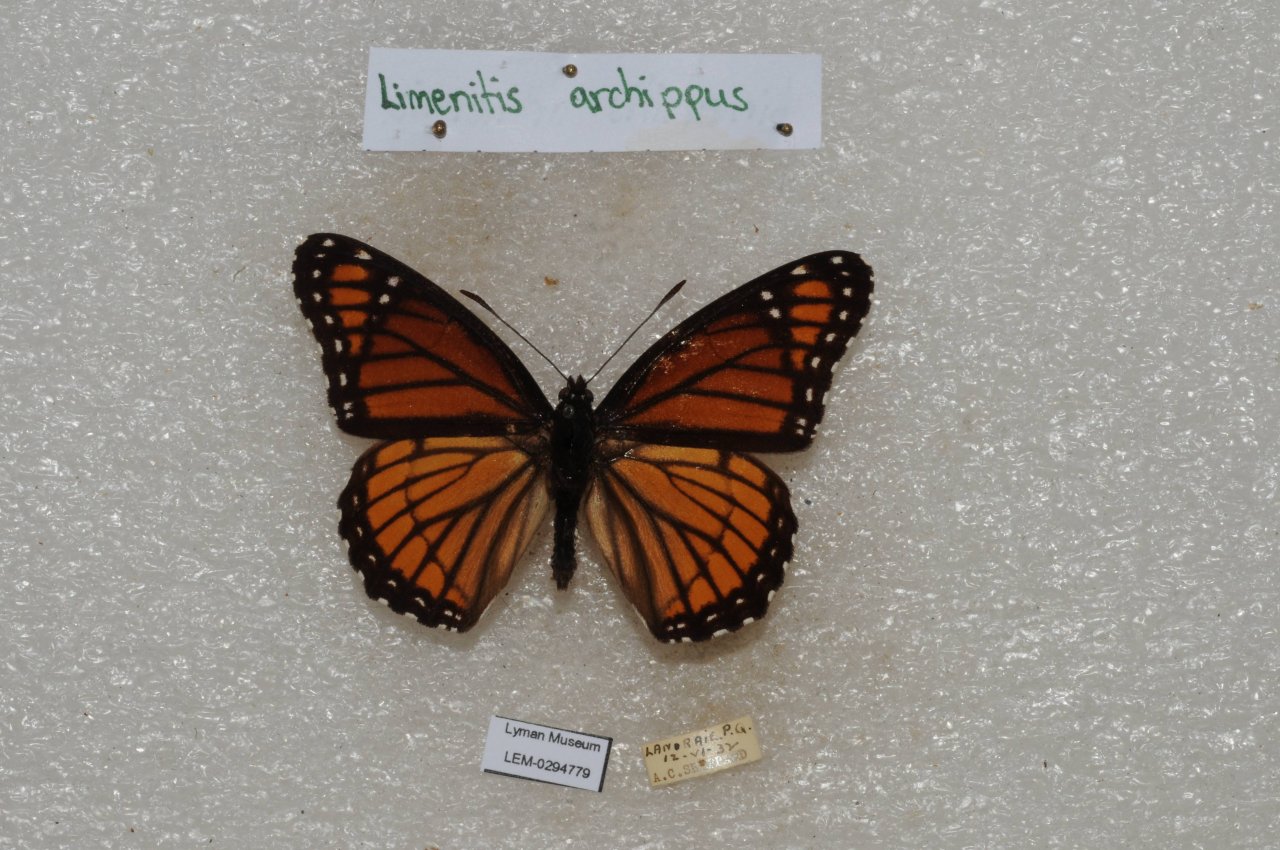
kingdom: Animalia
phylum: Arthropoda
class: Insecta
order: Lepidoptera
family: Nymphalidae
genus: Limenitis
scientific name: Limenitis archippus
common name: Viceroy
